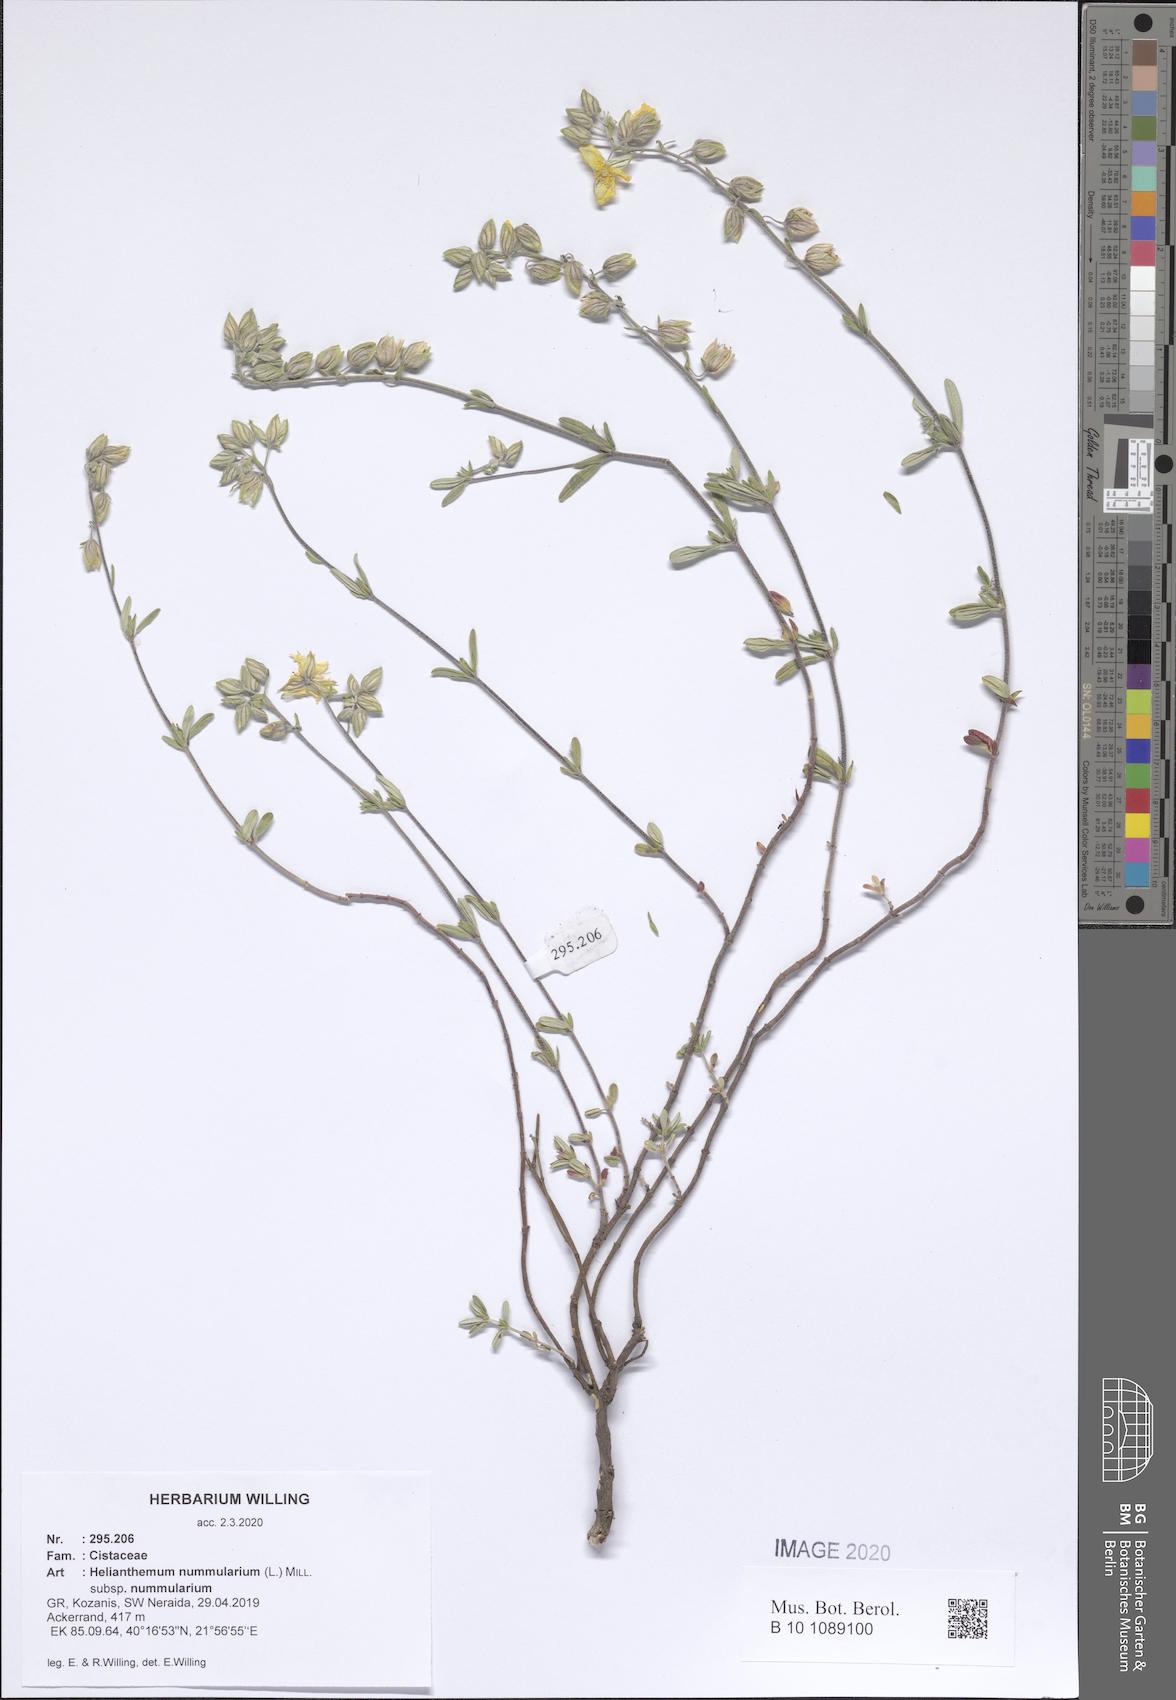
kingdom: Plantae
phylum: Tracheophyta
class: Magnoliopsida
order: Malvales
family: Cistaceae
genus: Helianthemum
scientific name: Helianthemum nummularium
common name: Common rock-rose
